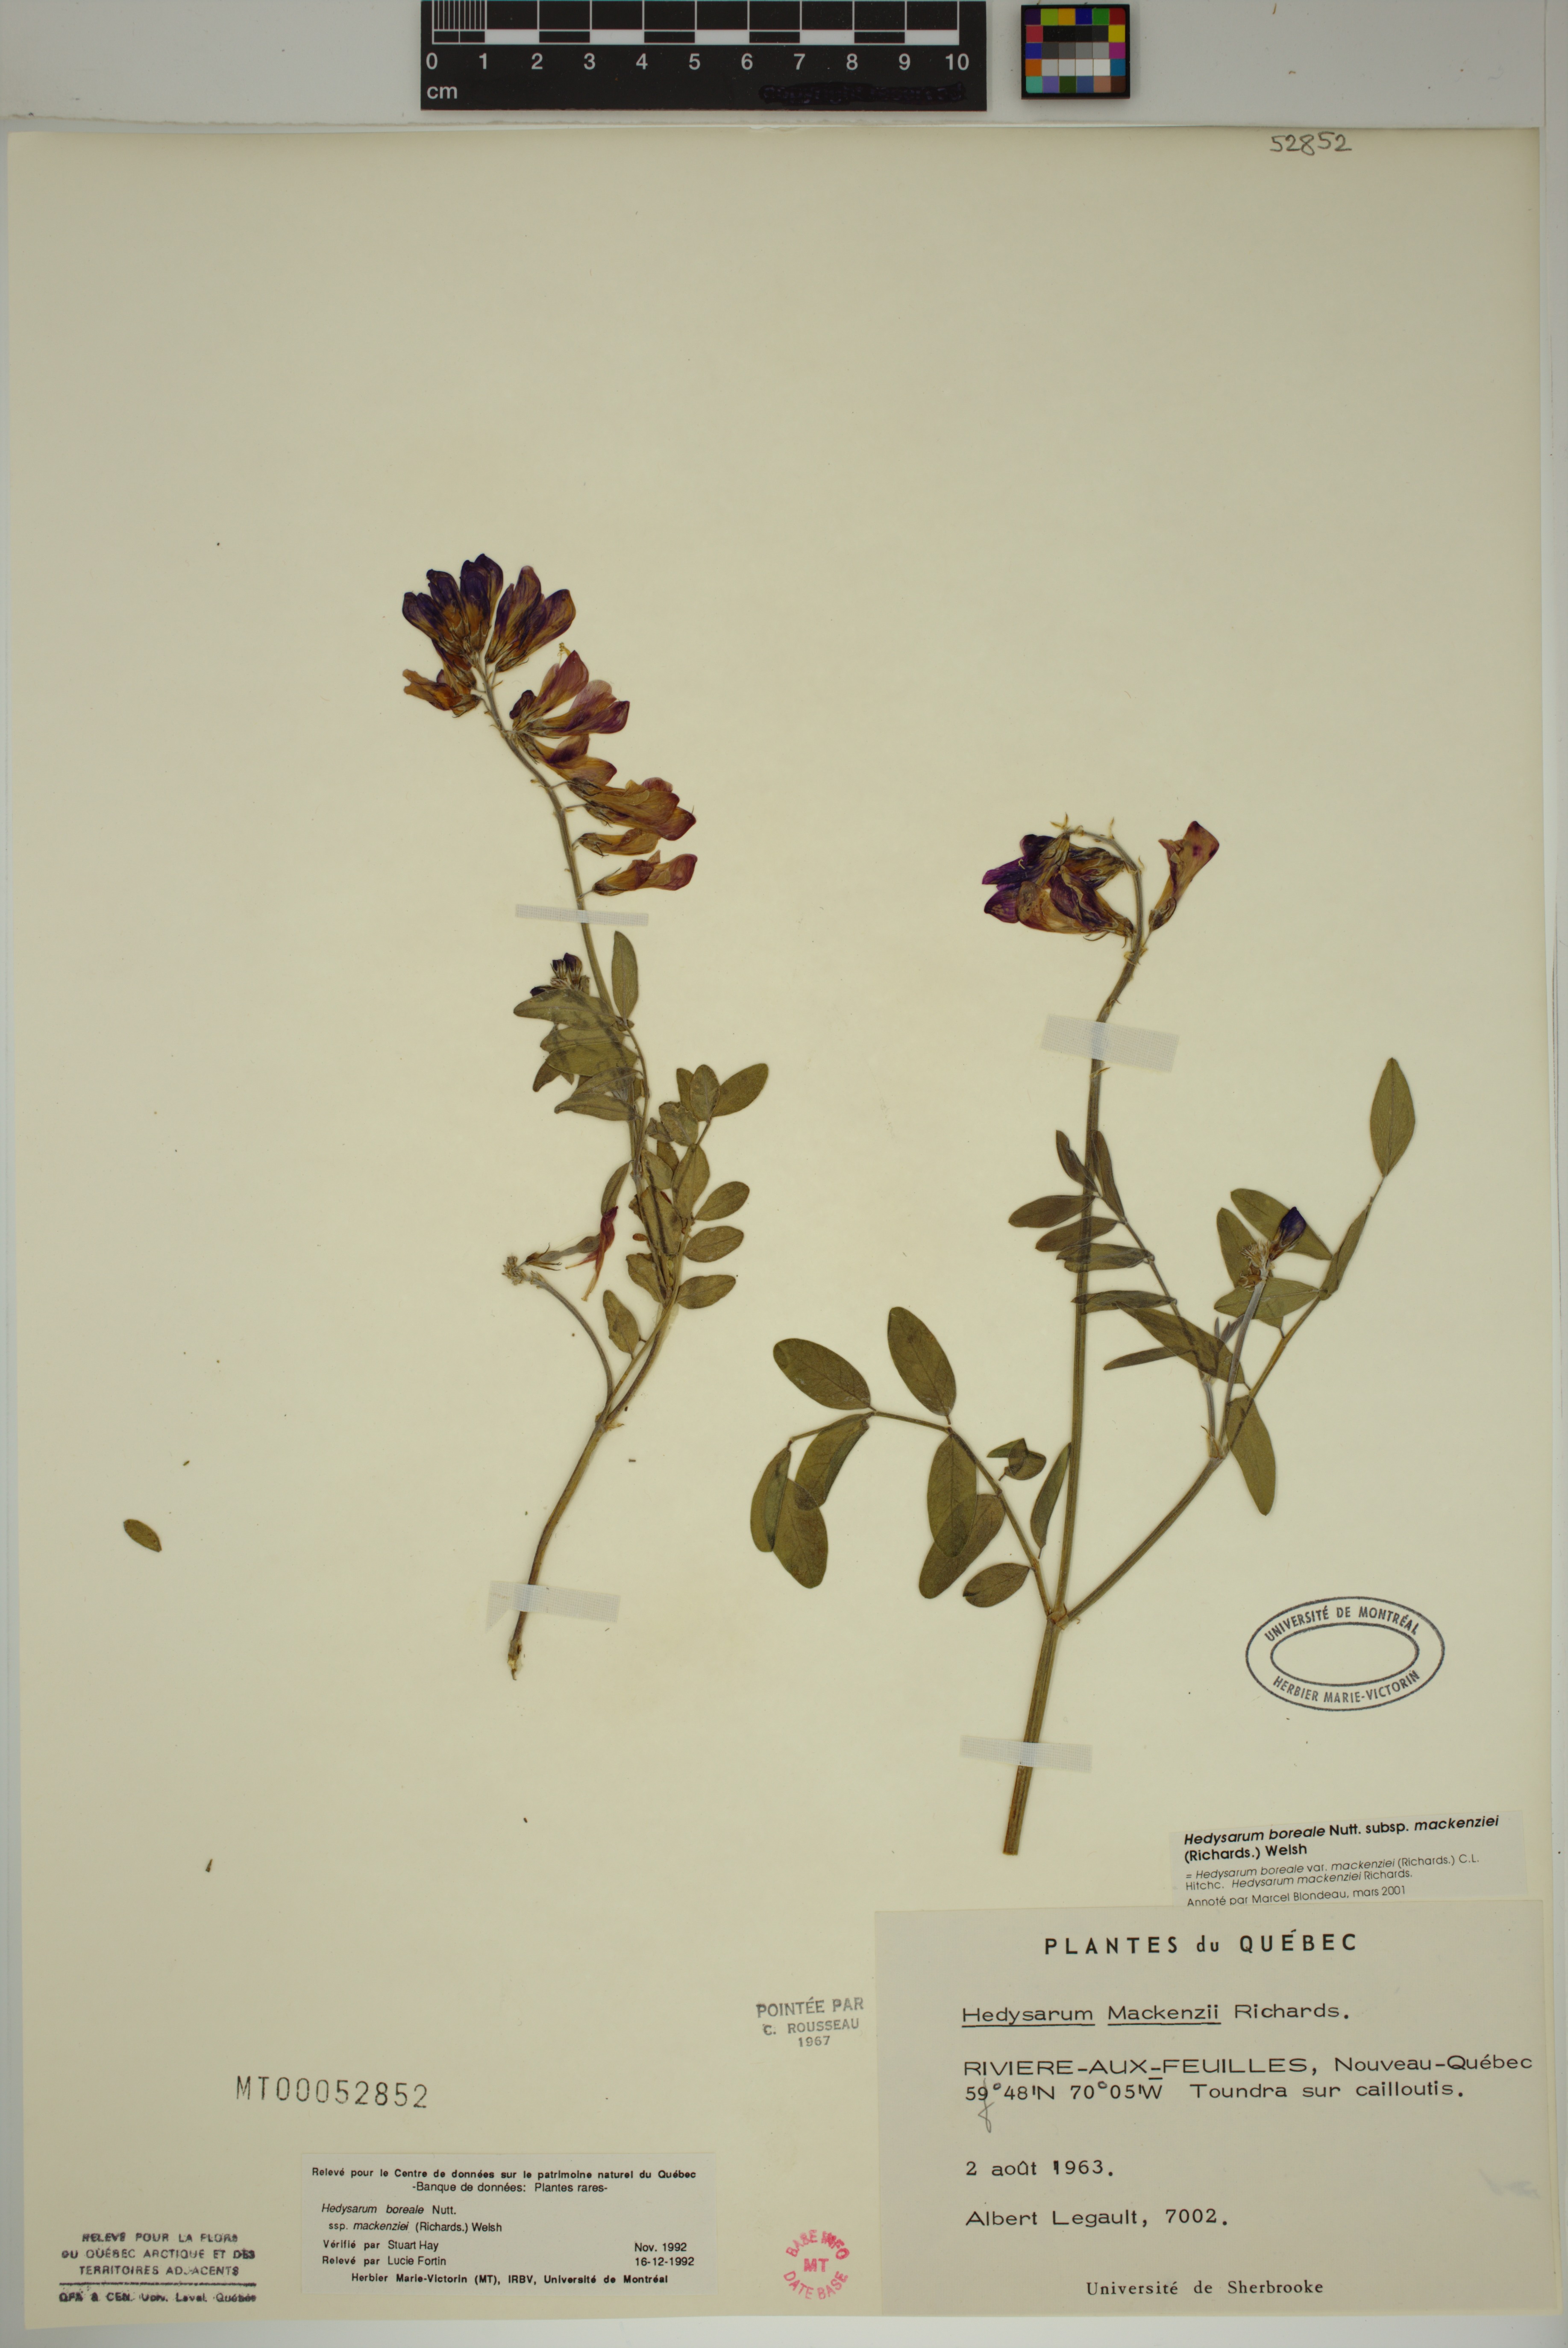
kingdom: Plantae
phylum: Tracheophyta
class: Magnoliopsida
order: Fabales
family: Fabaceae
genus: Hedysarum
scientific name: Hedysarum boreale
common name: Northern sweet-vetch
